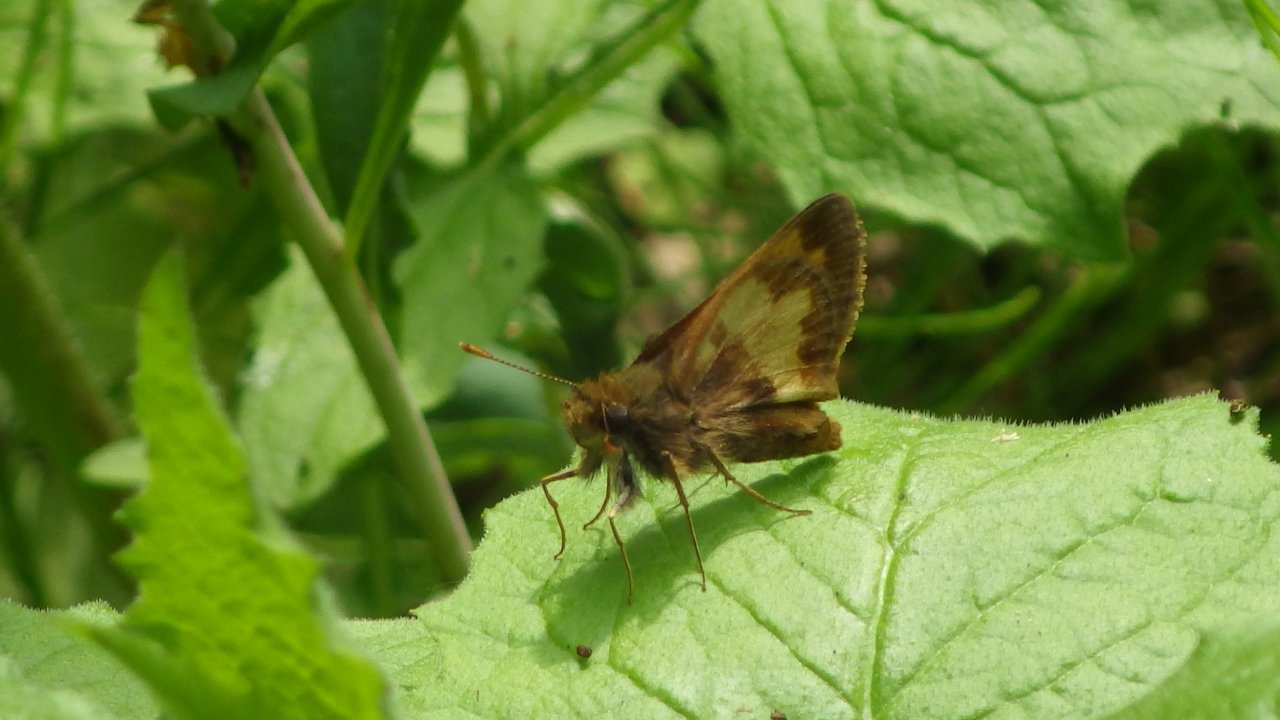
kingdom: Animalia
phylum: Arthropoda
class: Insecta
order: Lepidoptera
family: Hesperiidae
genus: Lon
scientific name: Lon hobomok
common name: Hobomok Skipper
